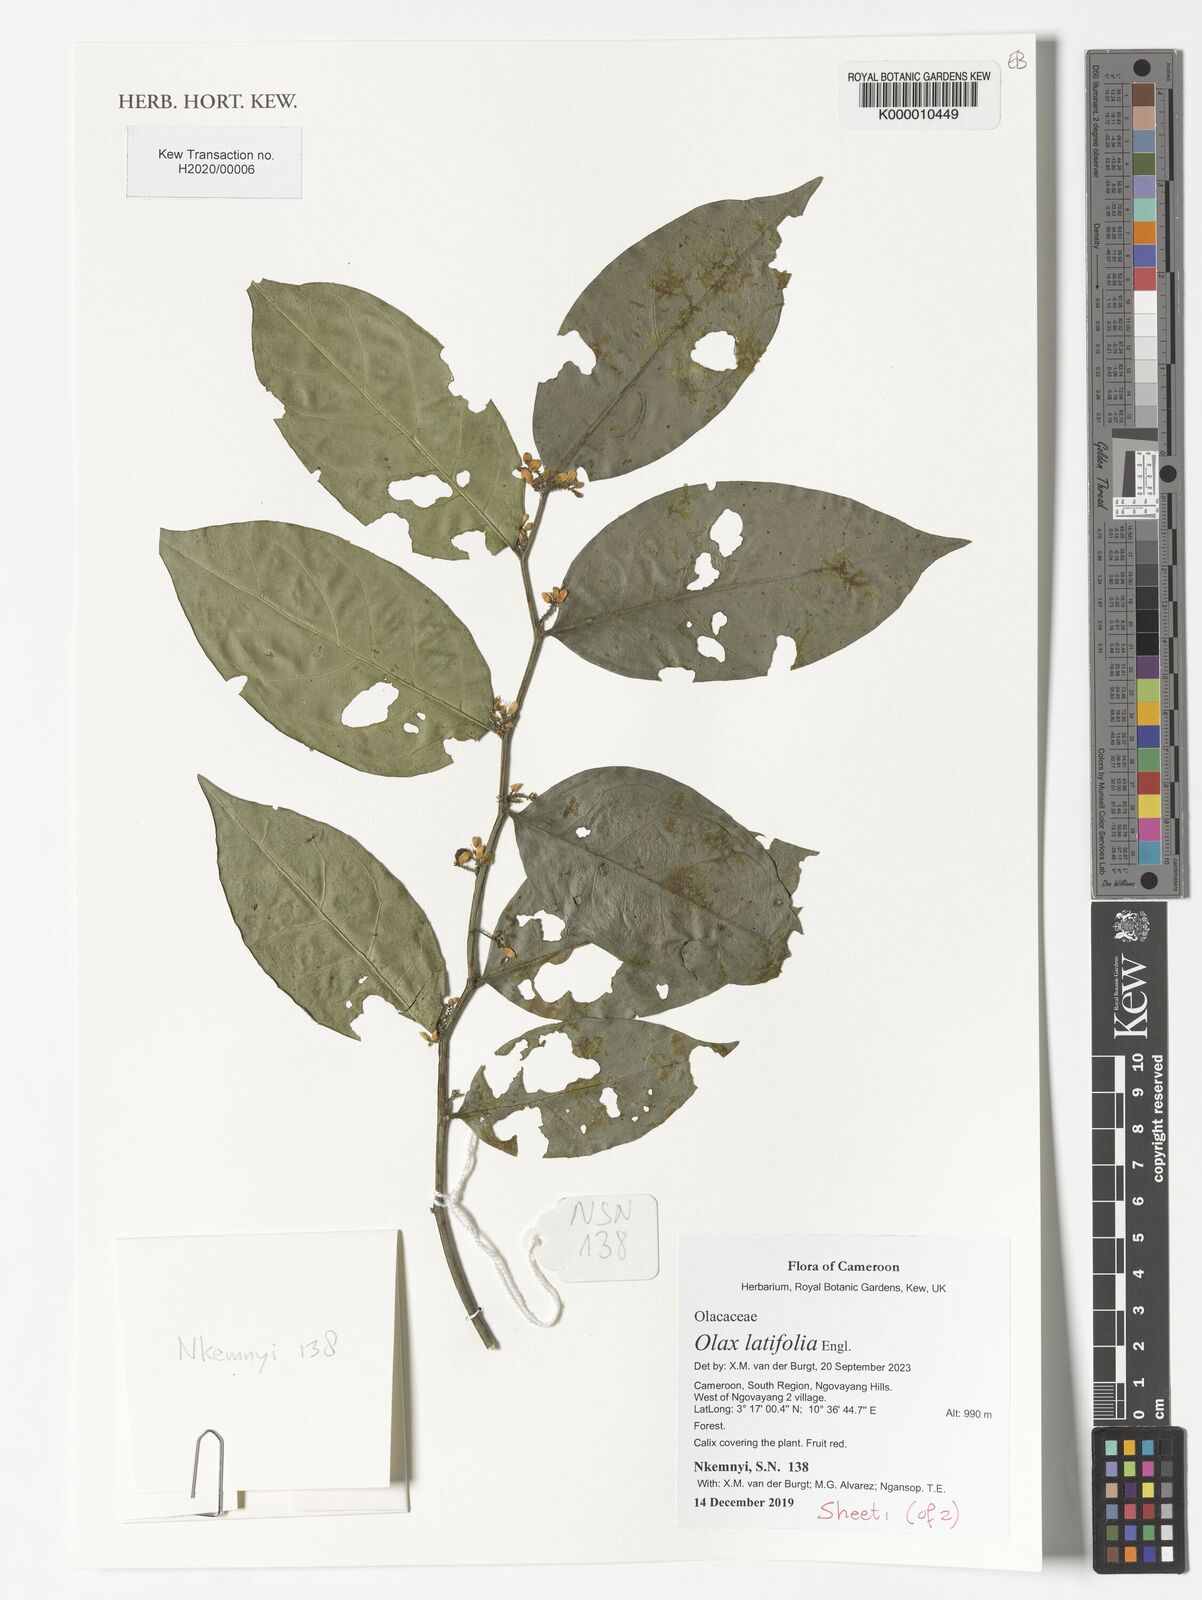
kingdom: Plantae
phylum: Tracheophyta
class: Magnoliopsida
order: Santalales
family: Olacaceae
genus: Olax
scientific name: Olax latifolia
